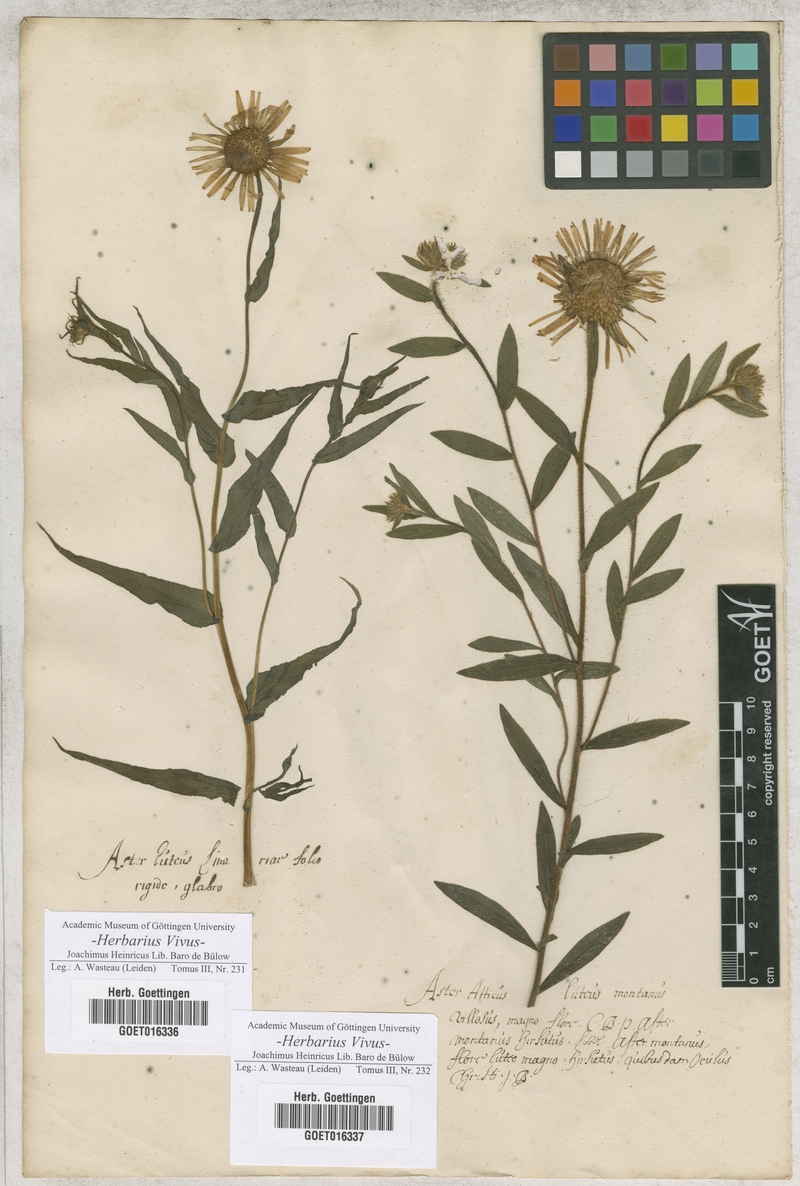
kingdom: Plantae
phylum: Tracheophyta
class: Magnoliopsida
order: Asterales
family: Asteraceae
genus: Pentanema
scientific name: Pentanema ensifolium
